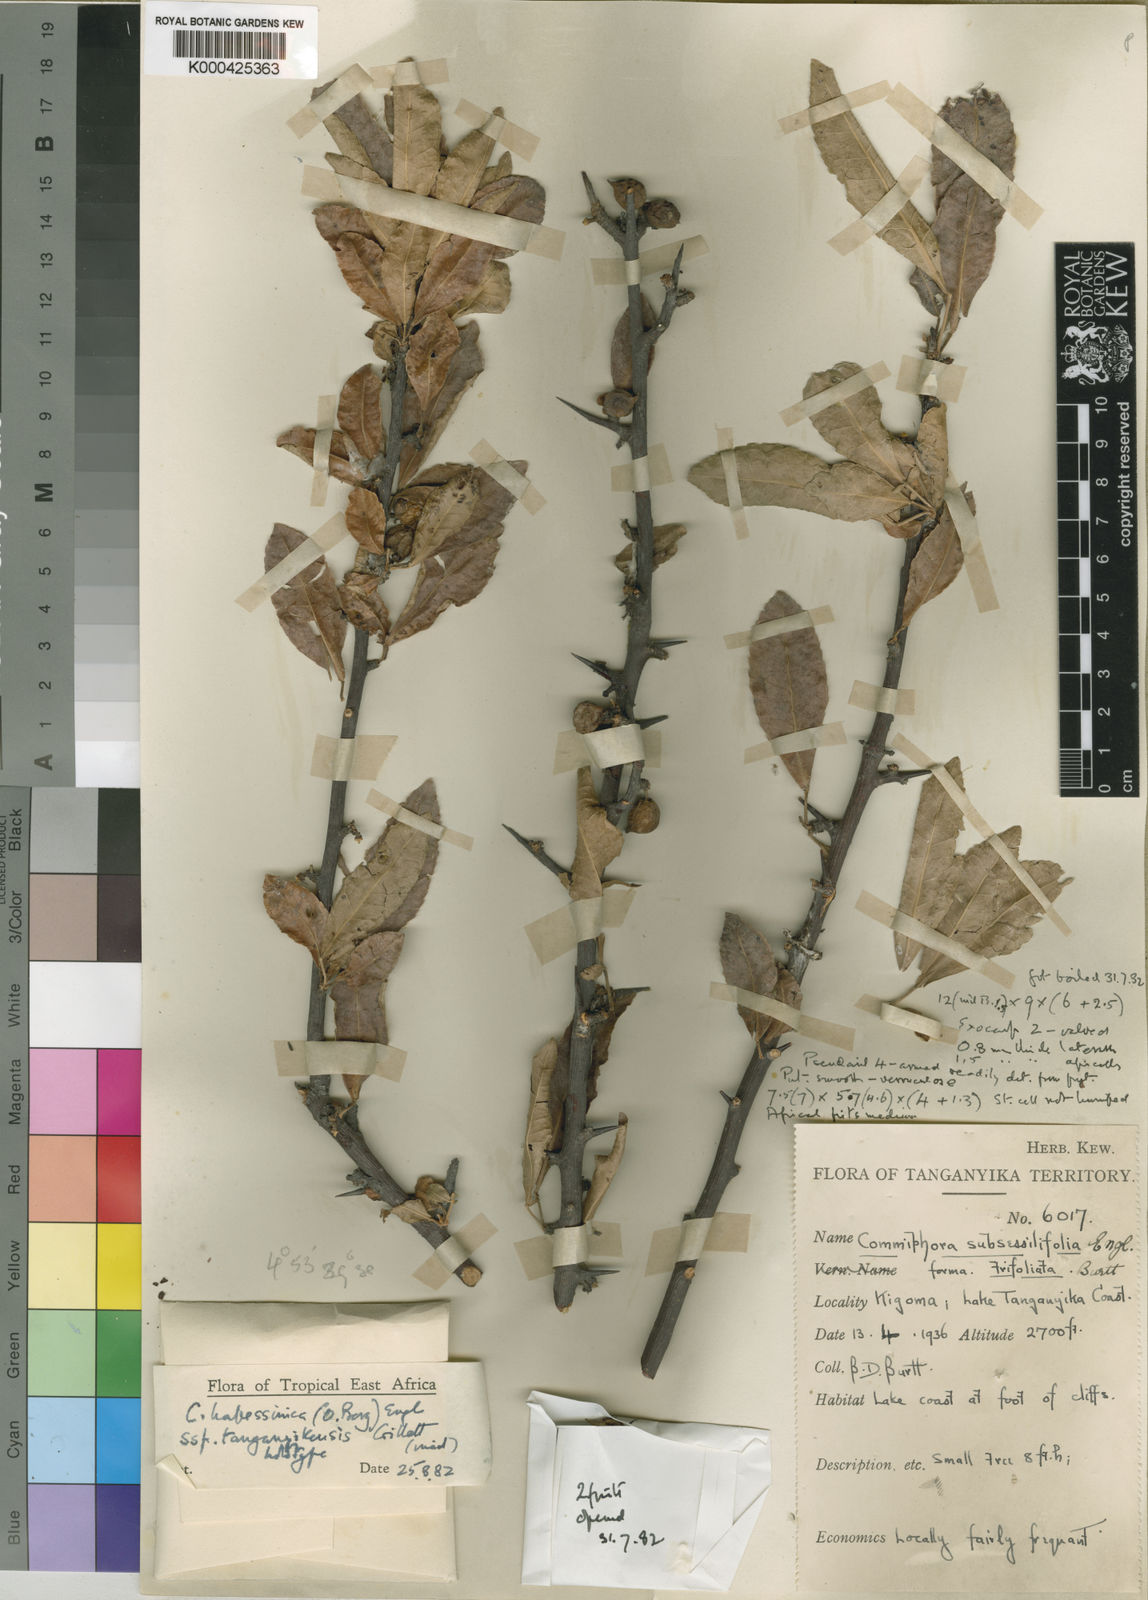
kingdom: Plantae
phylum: Tracheophyta
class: Magnoliopsida
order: Sapindales
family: Burseraceae
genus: Commiphora
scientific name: Commiphora kua
